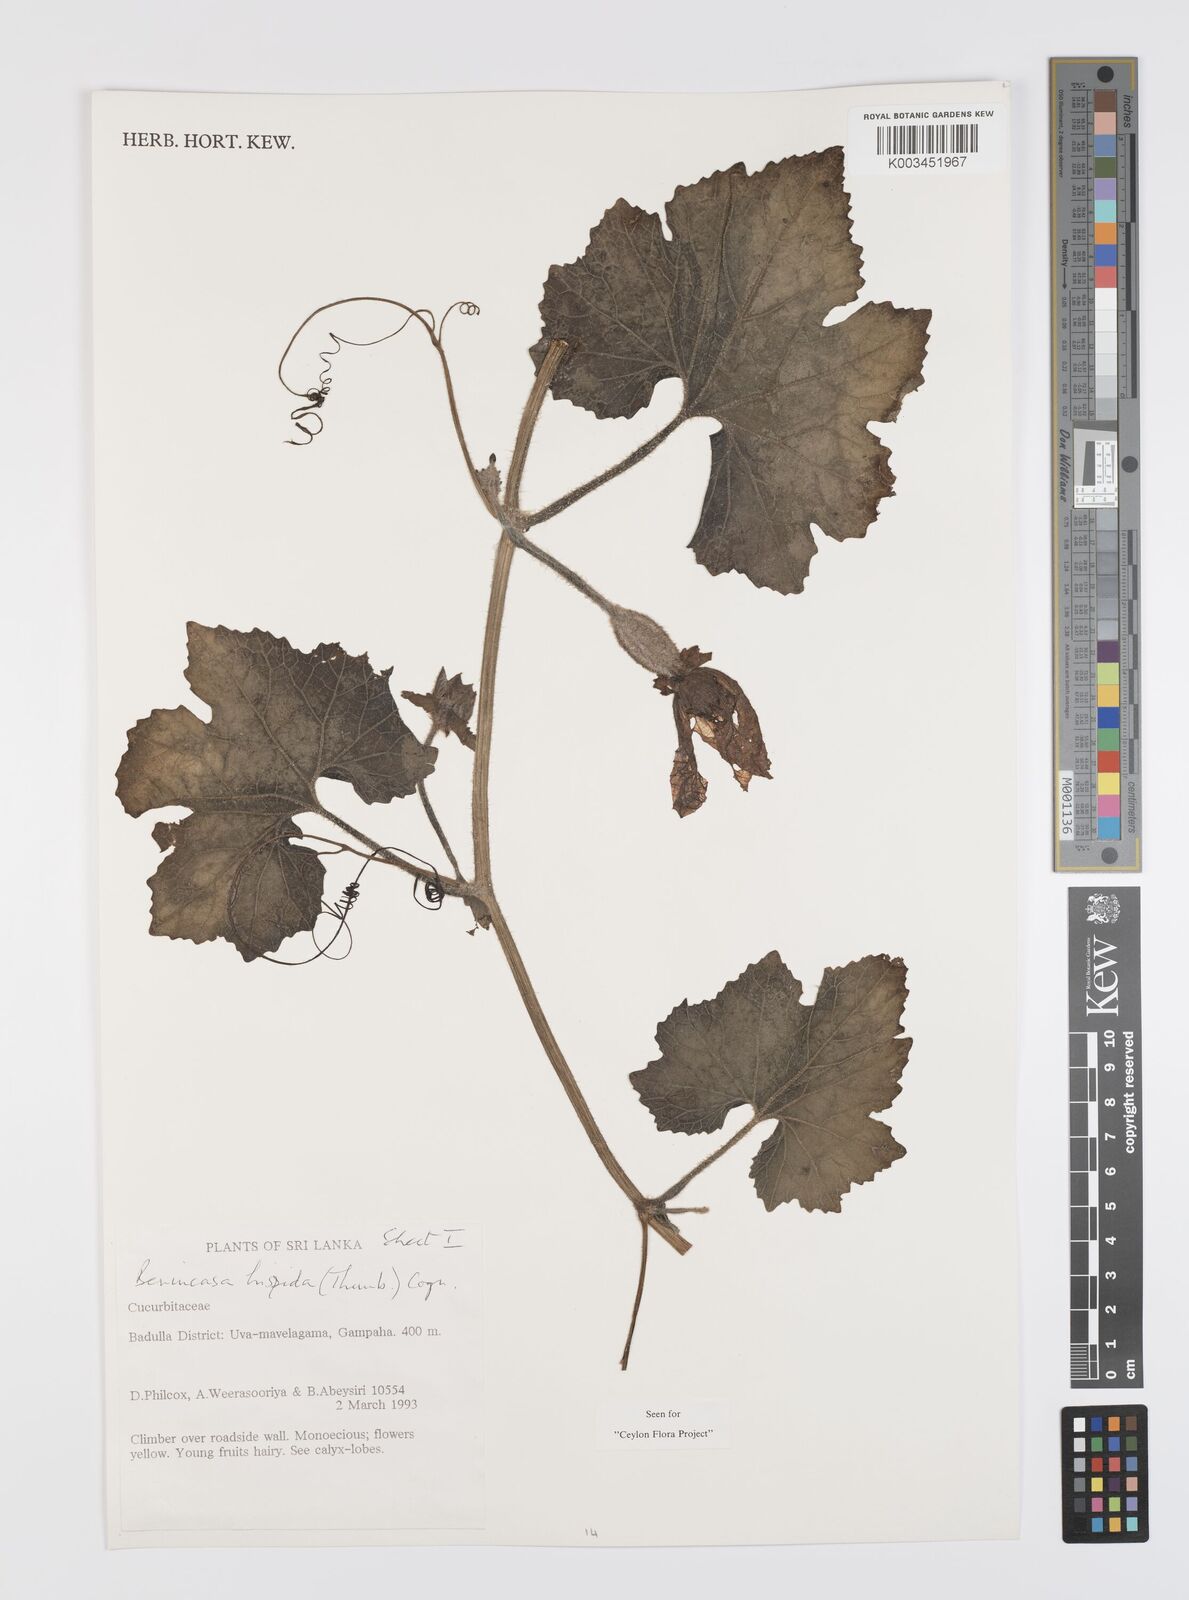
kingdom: Plantae
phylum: Tracheophyta
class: Magnoliopsida
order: Cucurbitales
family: Cucurbitaceae
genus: Benincasa
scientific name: Benincasa hispida
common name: Chinese-watermelon
